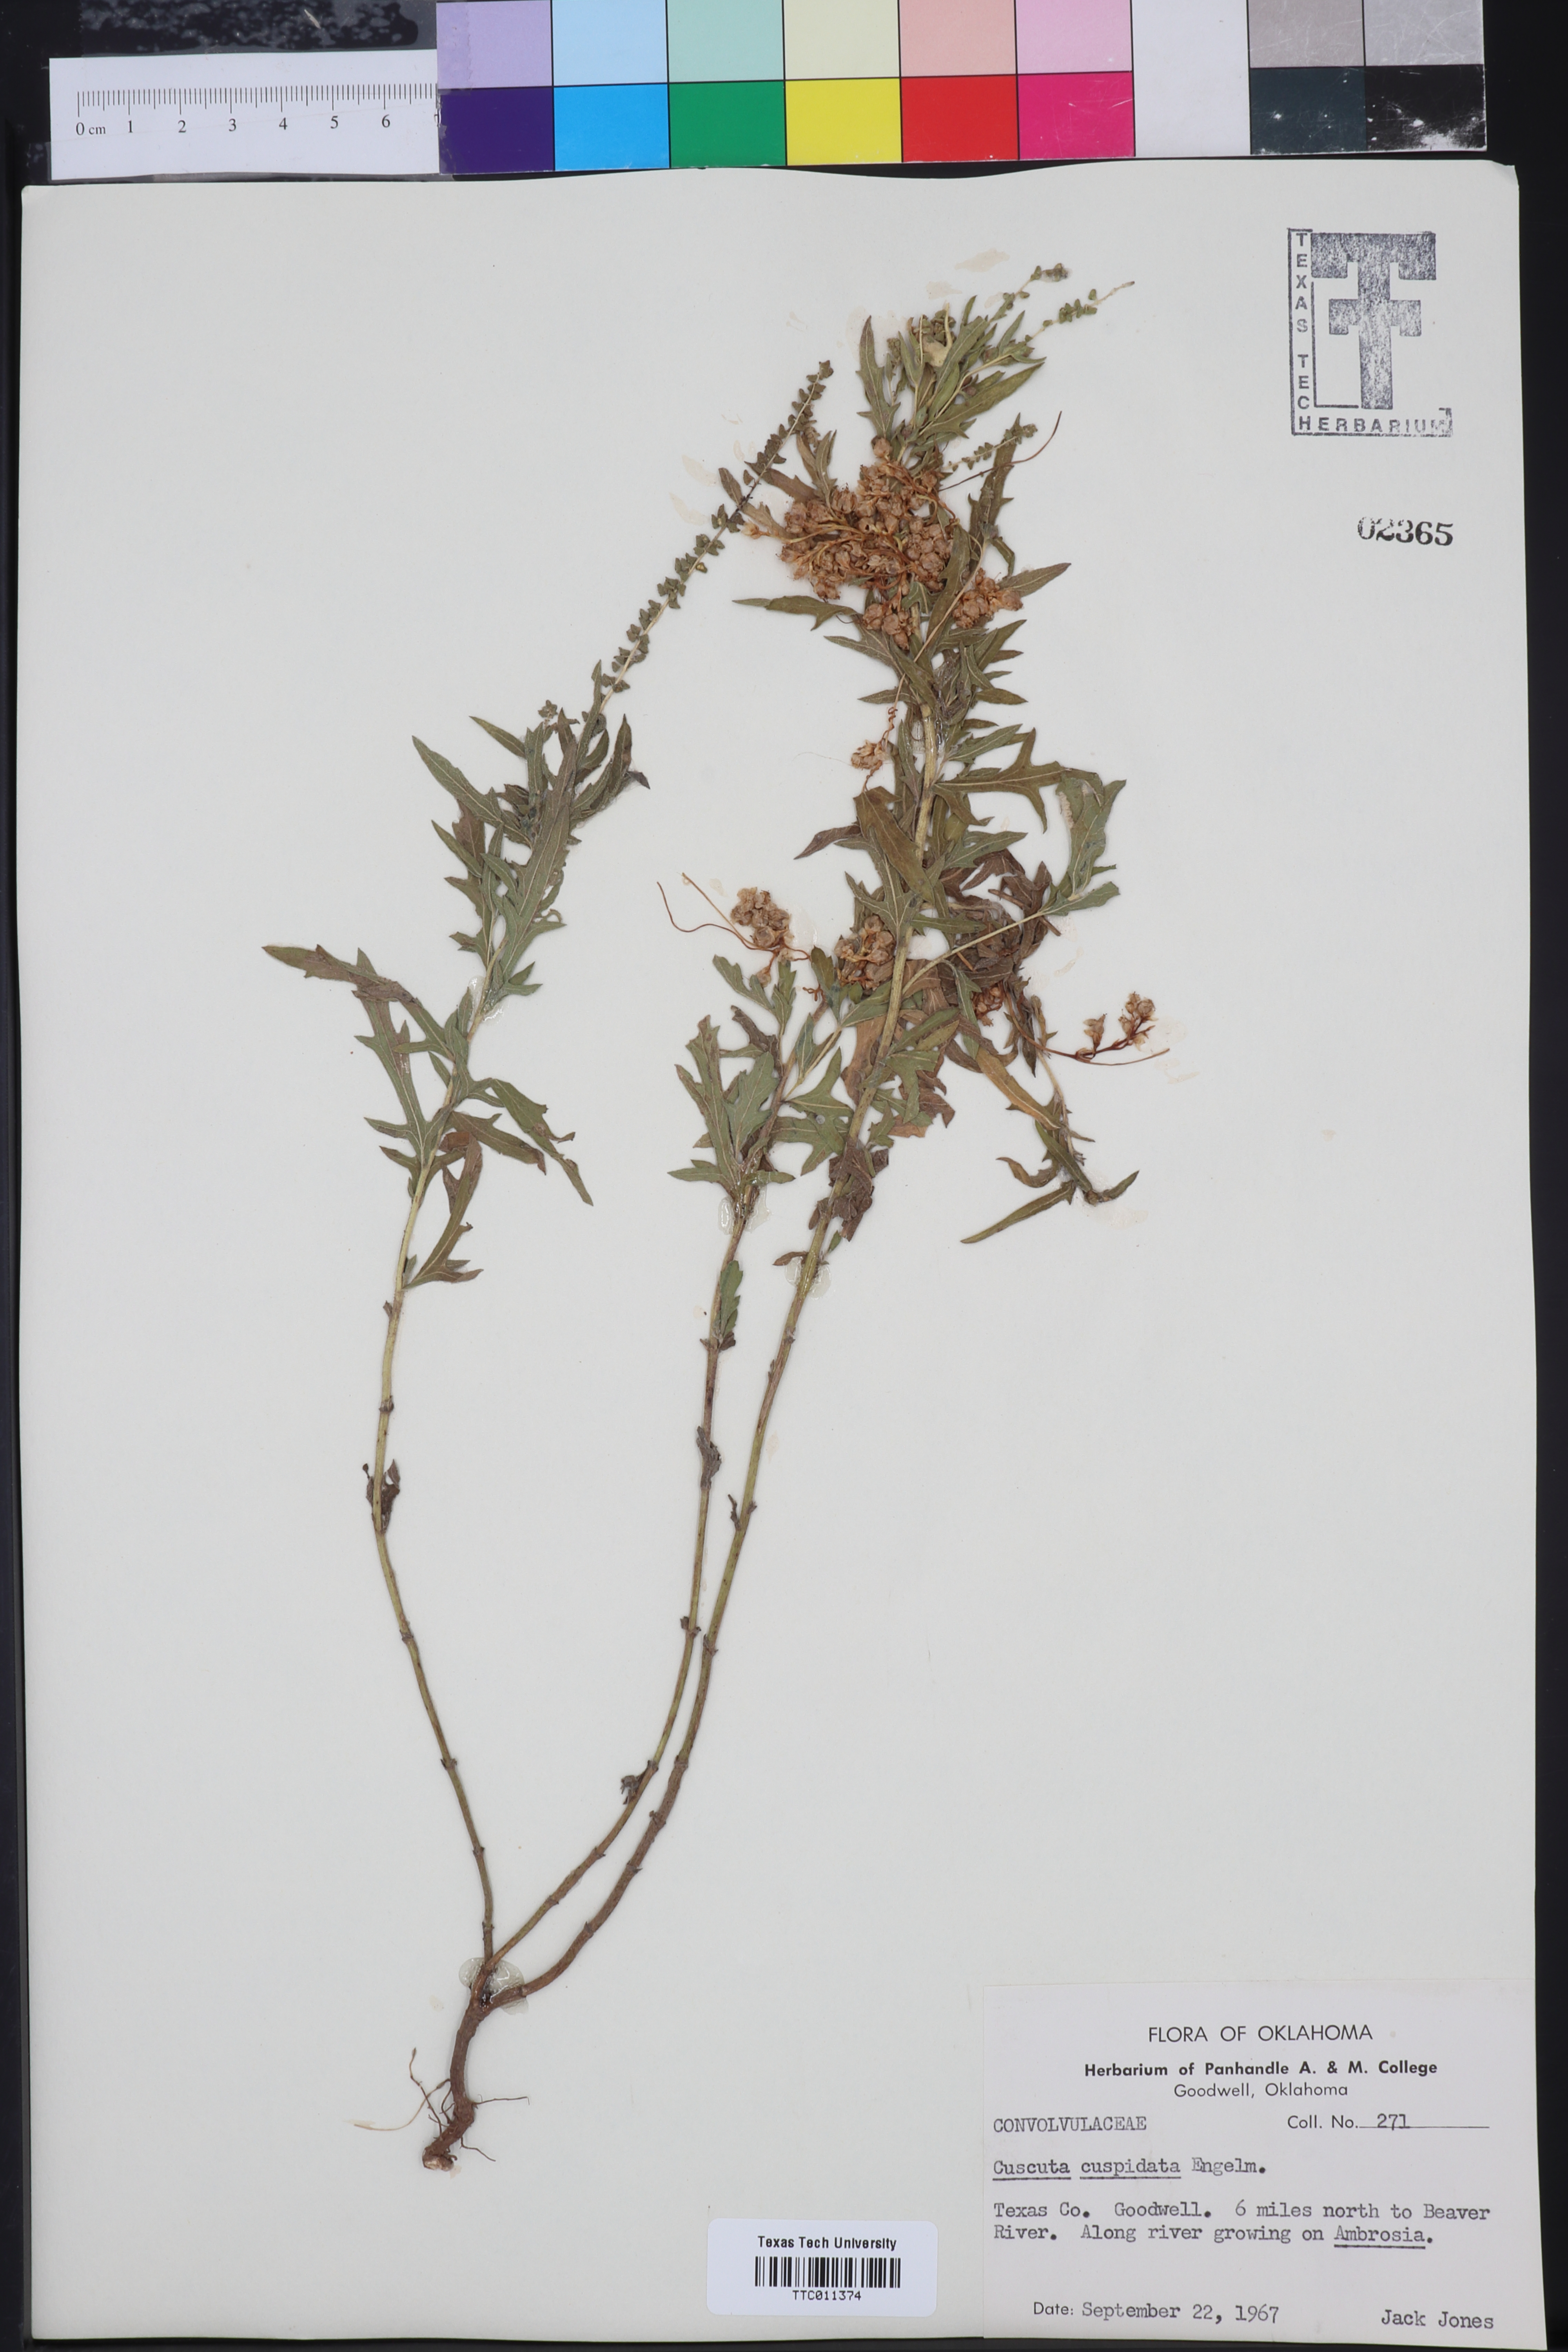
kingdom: Plantae
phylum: Tracheophyta
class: Magnoliopsida
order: Solanales
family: Convolvulaceae
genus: Cuscuta
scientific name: Cuscuta cuspidata
